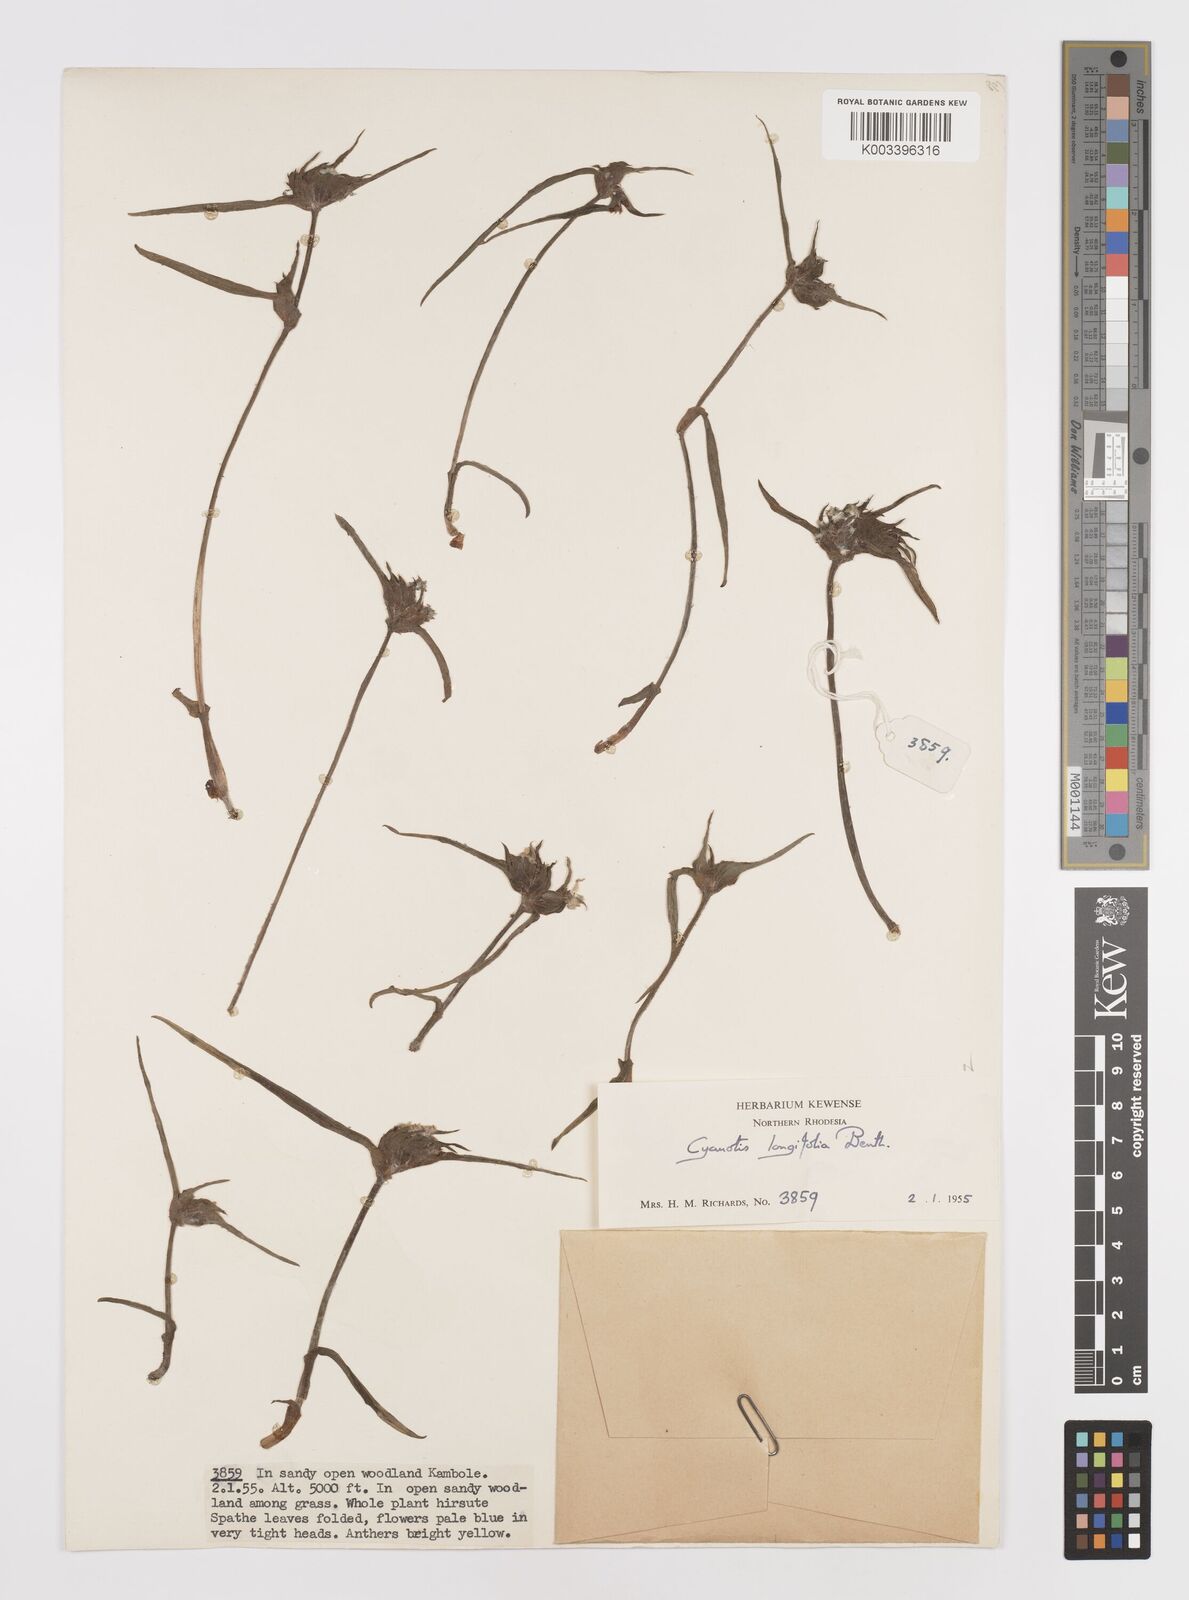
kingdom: Plantae
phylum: Tracheophyta
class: Liliopsida
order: Commelinales
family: Commelinaceae
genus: Cyanotis
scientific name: Cyanotis longifolia
